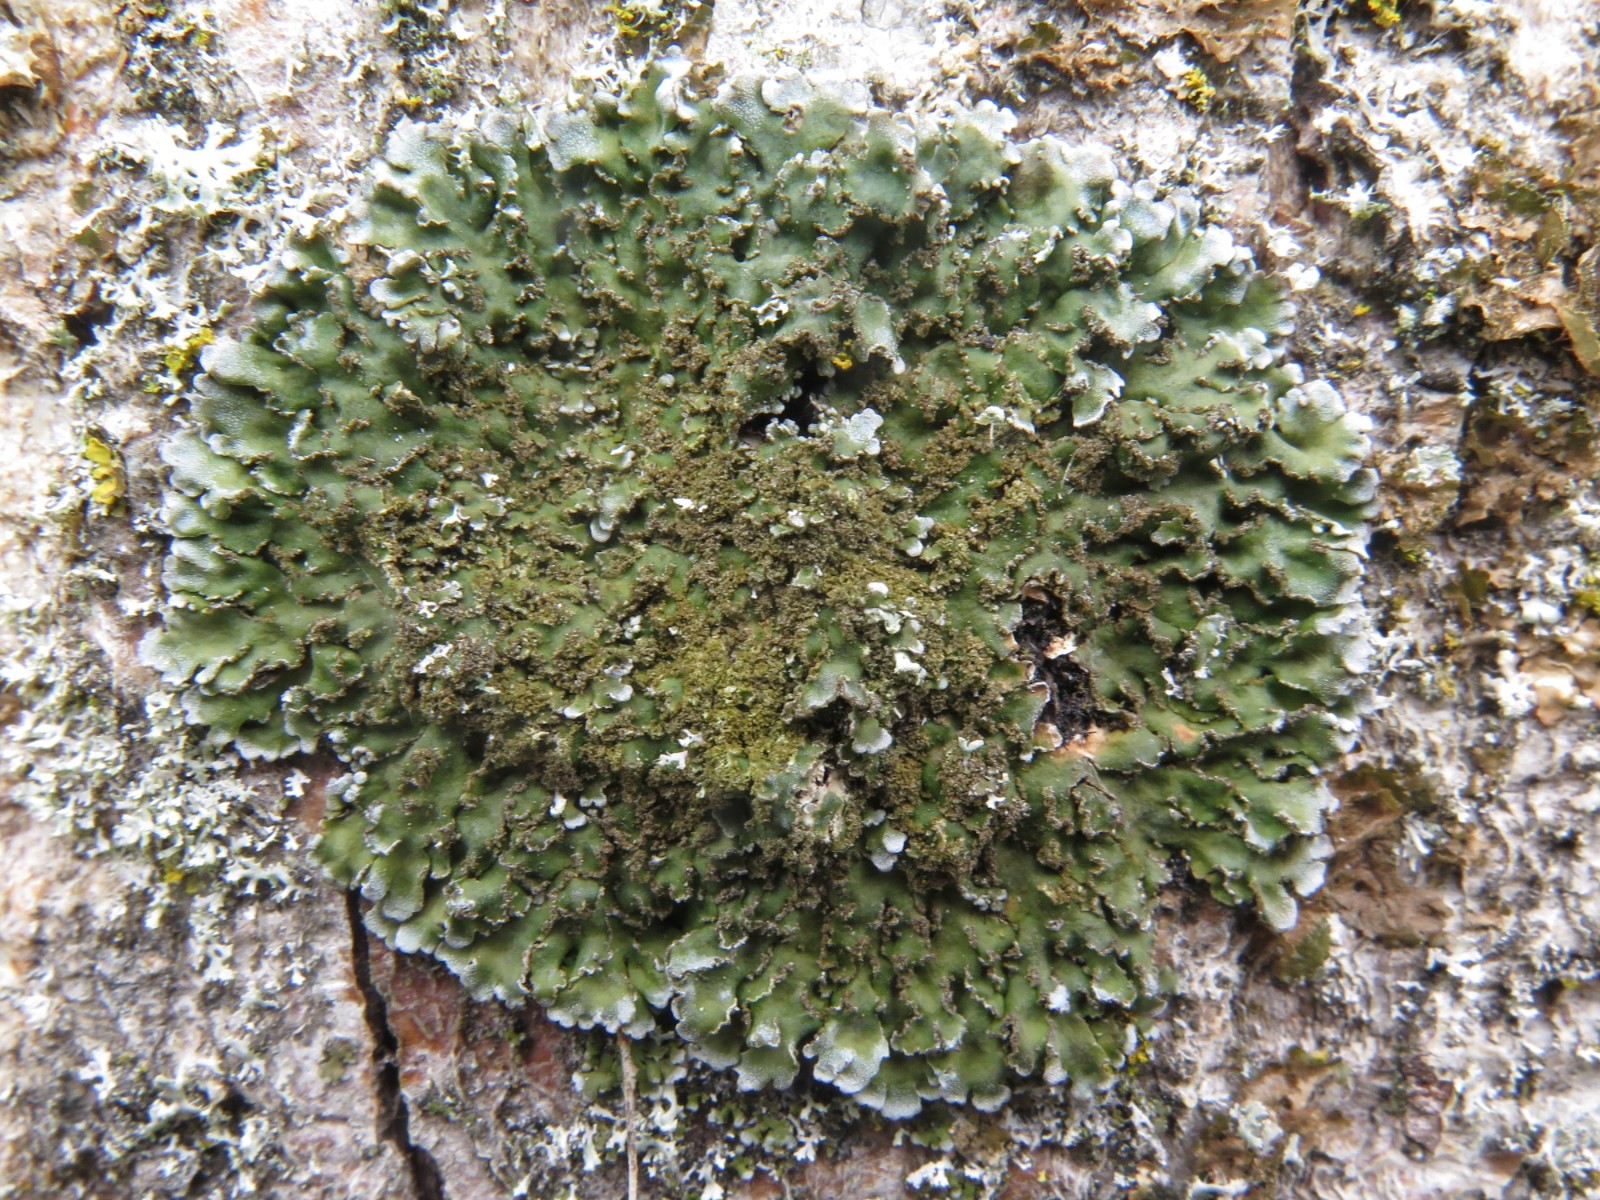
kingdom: Fungi
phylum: Ascomycota
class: Lecanoromycetes
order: Caliciales
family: Physciaceae
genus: Physconia
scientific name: Physconia perisidiosa
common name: liden dugrosetlav
